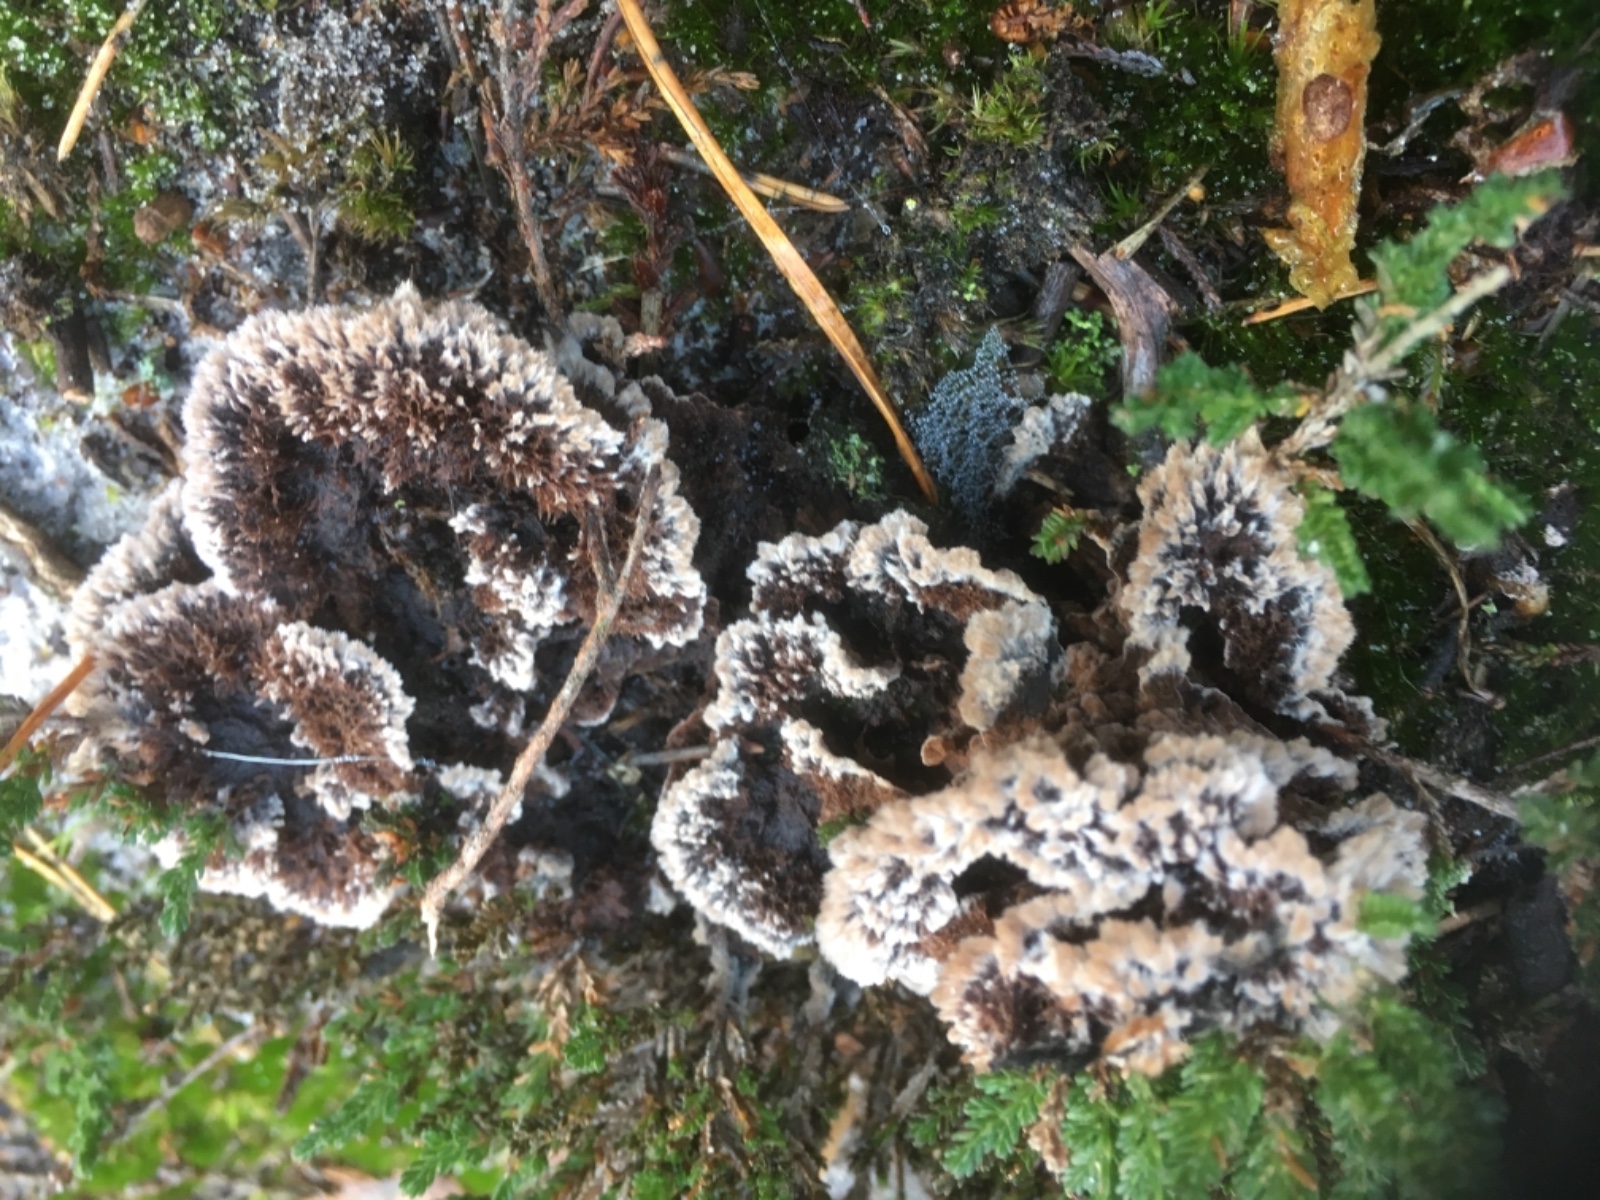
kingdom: Fungi
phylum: Basidiomycota
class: Agaricomycetes
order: Thelephorales
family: Thelephoraceae
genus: Thelephora
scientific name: Thelephora terrestris
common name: fliget frynsesvamp
